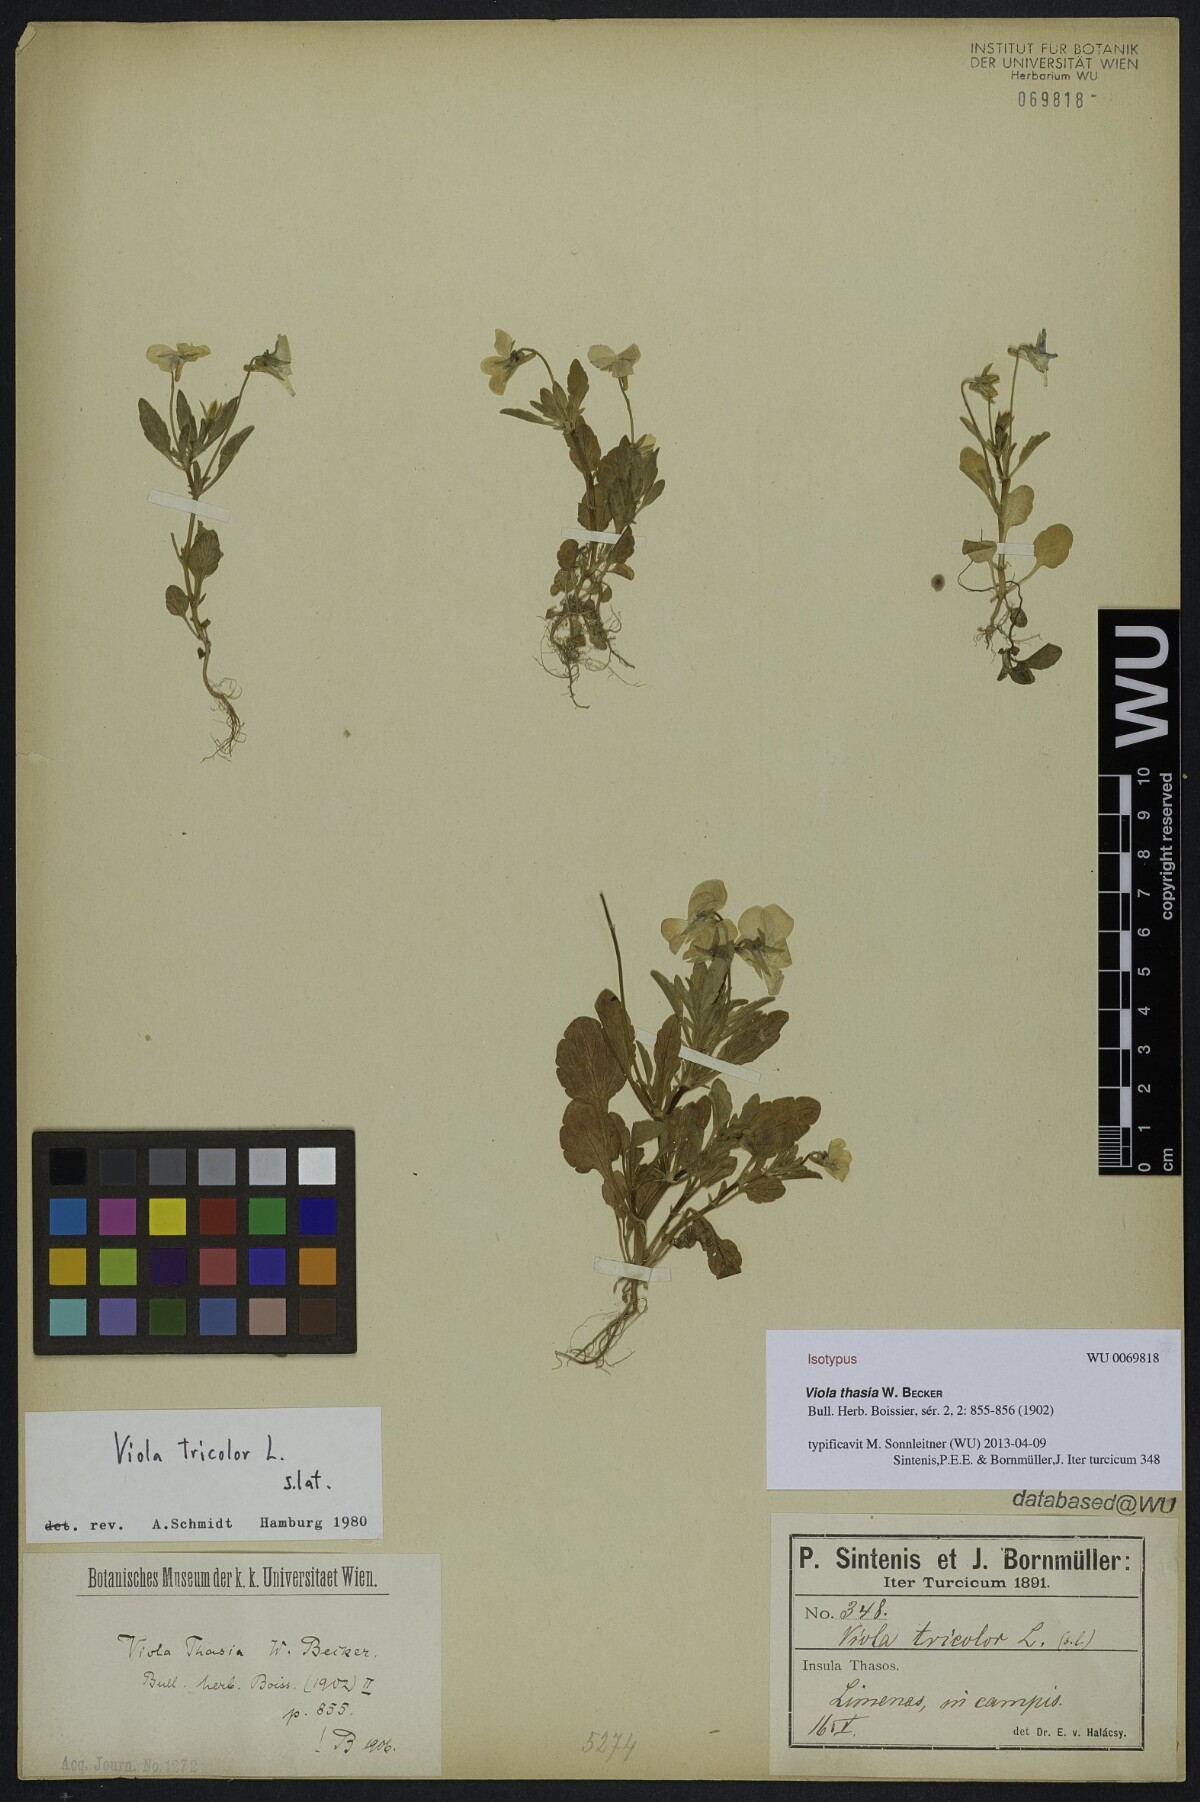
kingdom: Plantae
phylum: Tracheophyta
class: Magnoliopsida
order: Malpighiales
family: Violaceae
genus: Viola
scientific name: Viola tricolor
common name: Pansy
